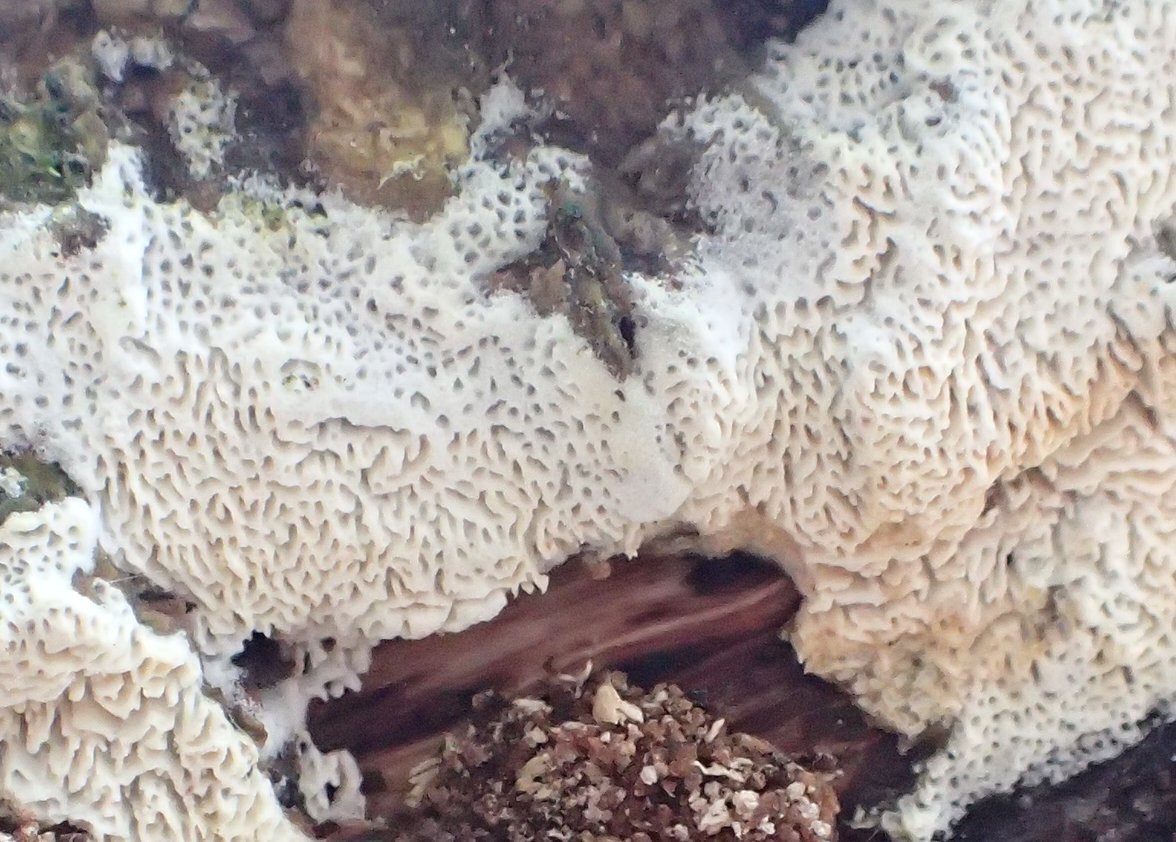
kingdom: Fungi
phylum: Basidiomycota
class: Agaricomycetes
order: Hymenochaetales
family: Schizoporaceae
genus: Xylodon
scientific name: Xylodon subtropicus
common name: labyrint-tandsvamp
